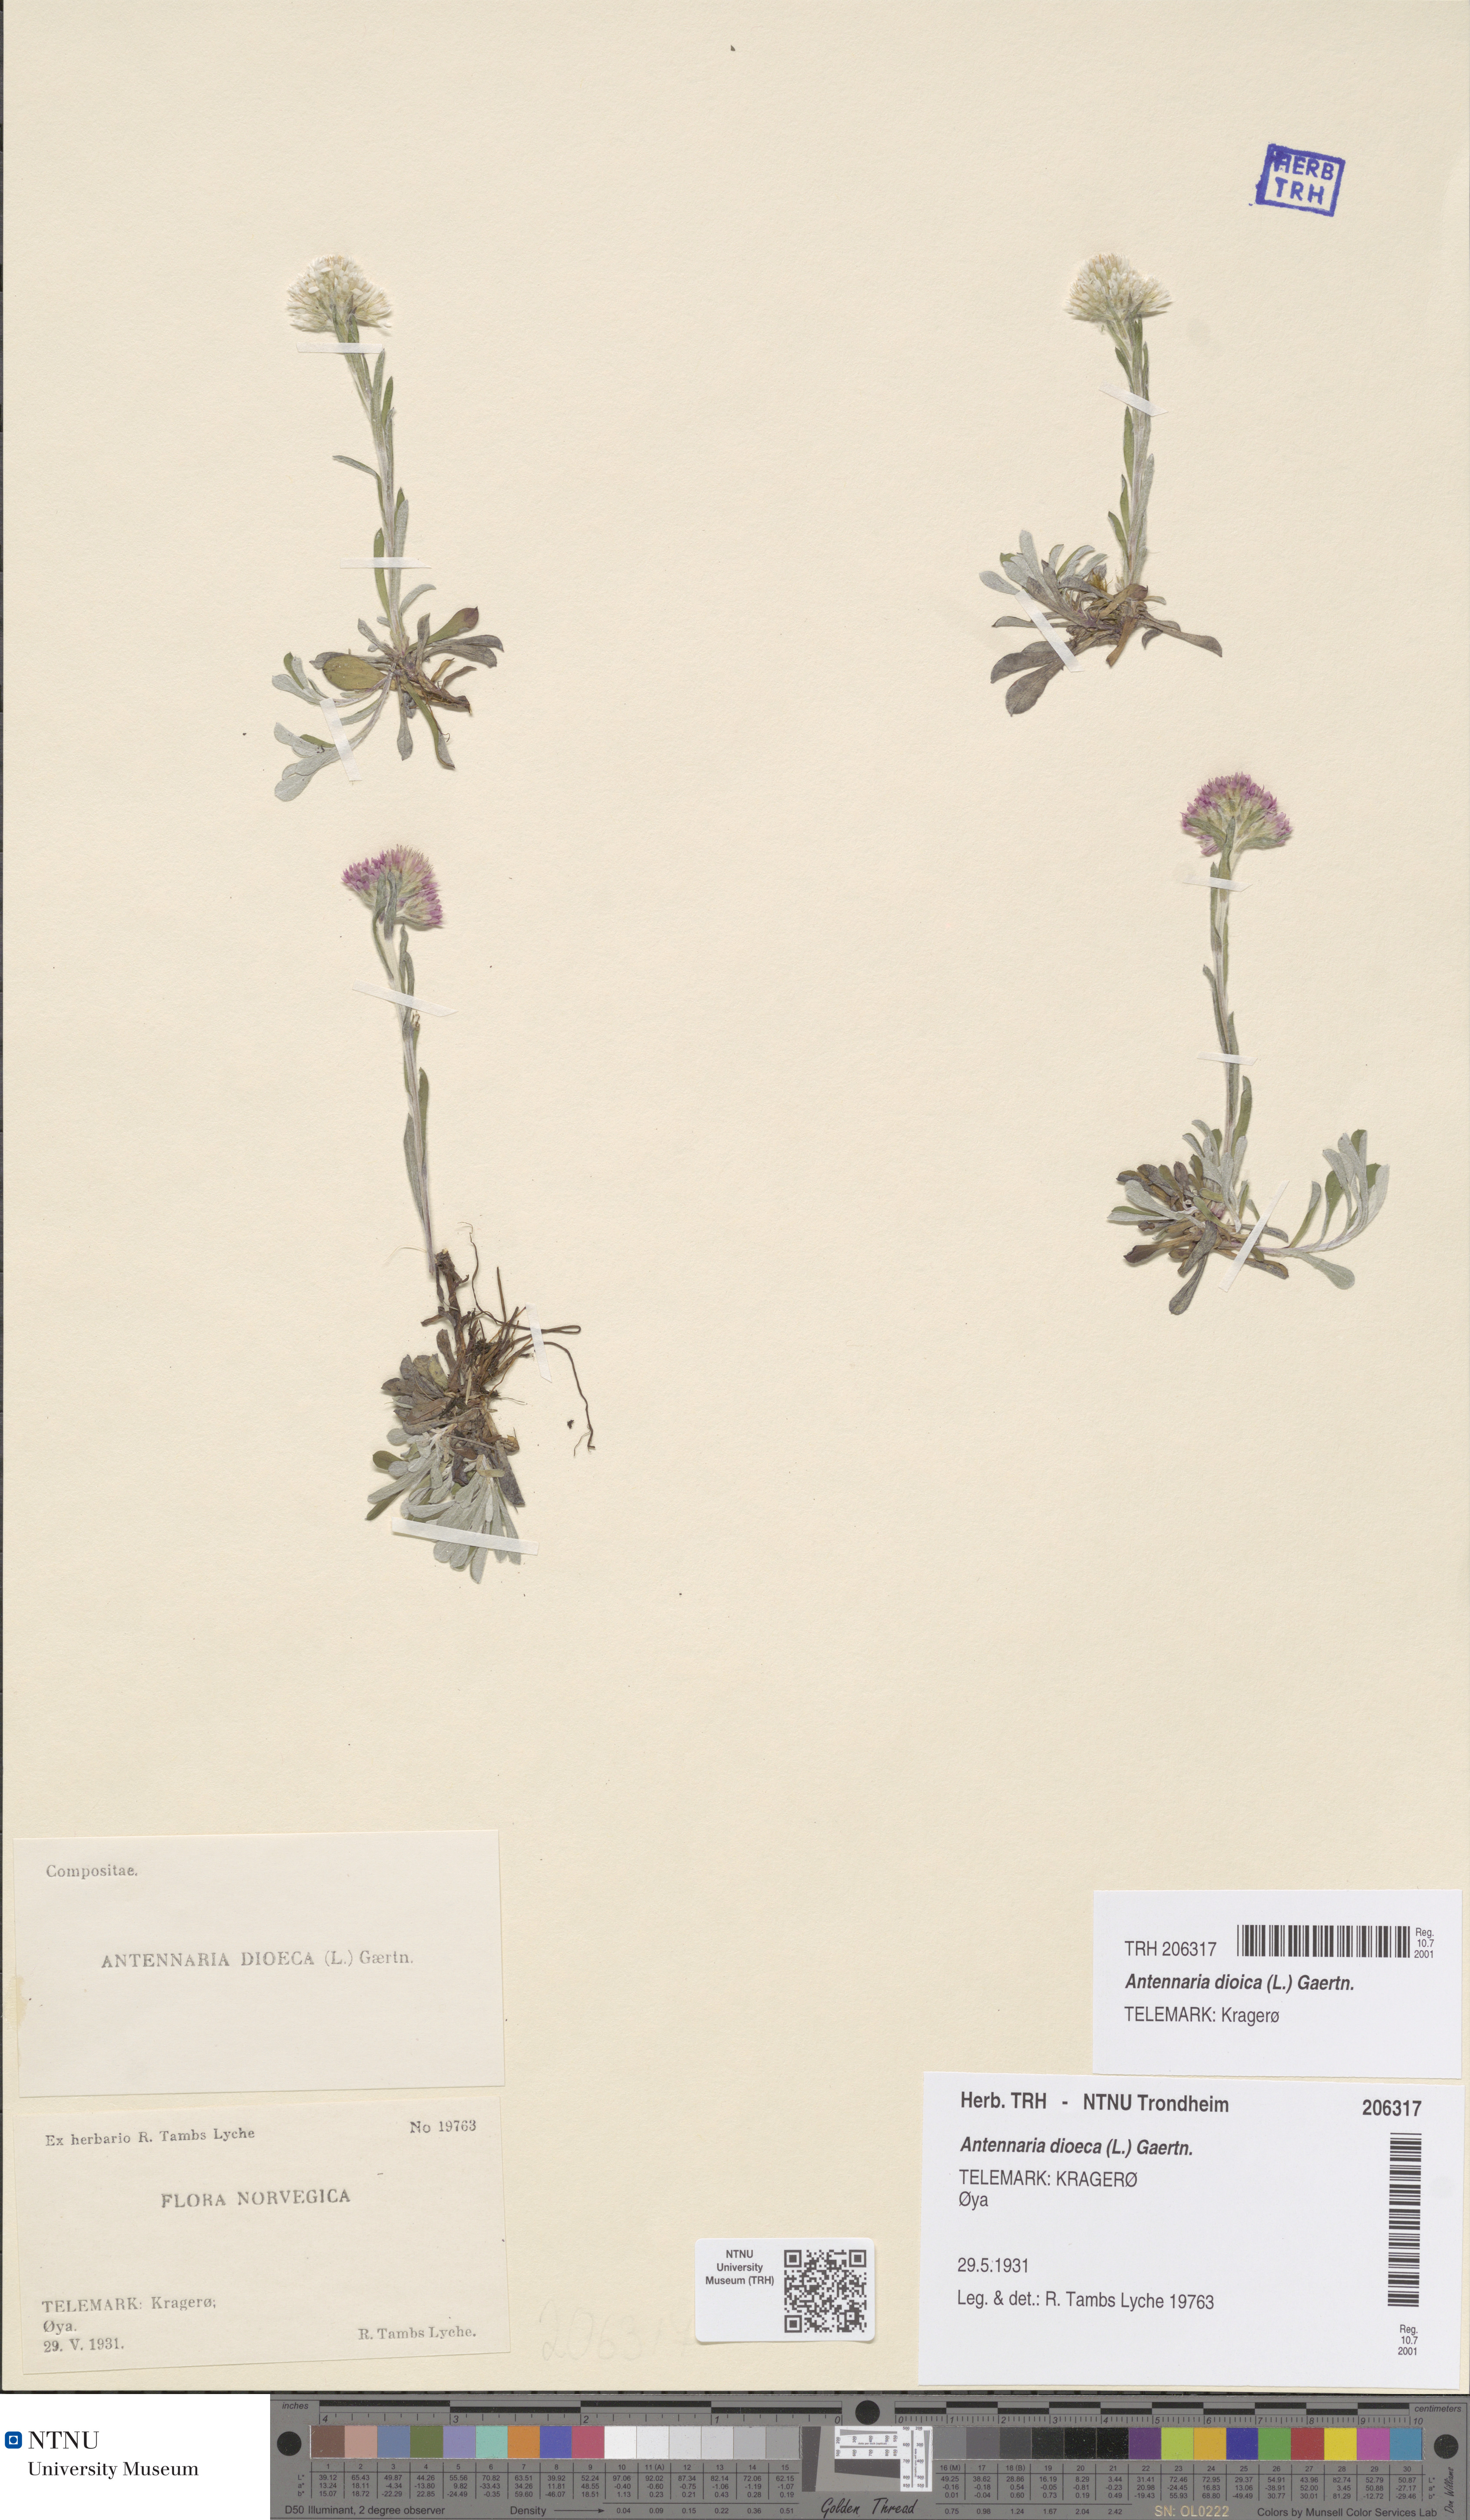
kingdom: Plantae
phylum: Tracheophyta
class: Magnoliopsida
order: Asterales
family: Asteraceae
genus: Antennaria
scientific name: Antennaria dioica
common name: Mountain everlasting
